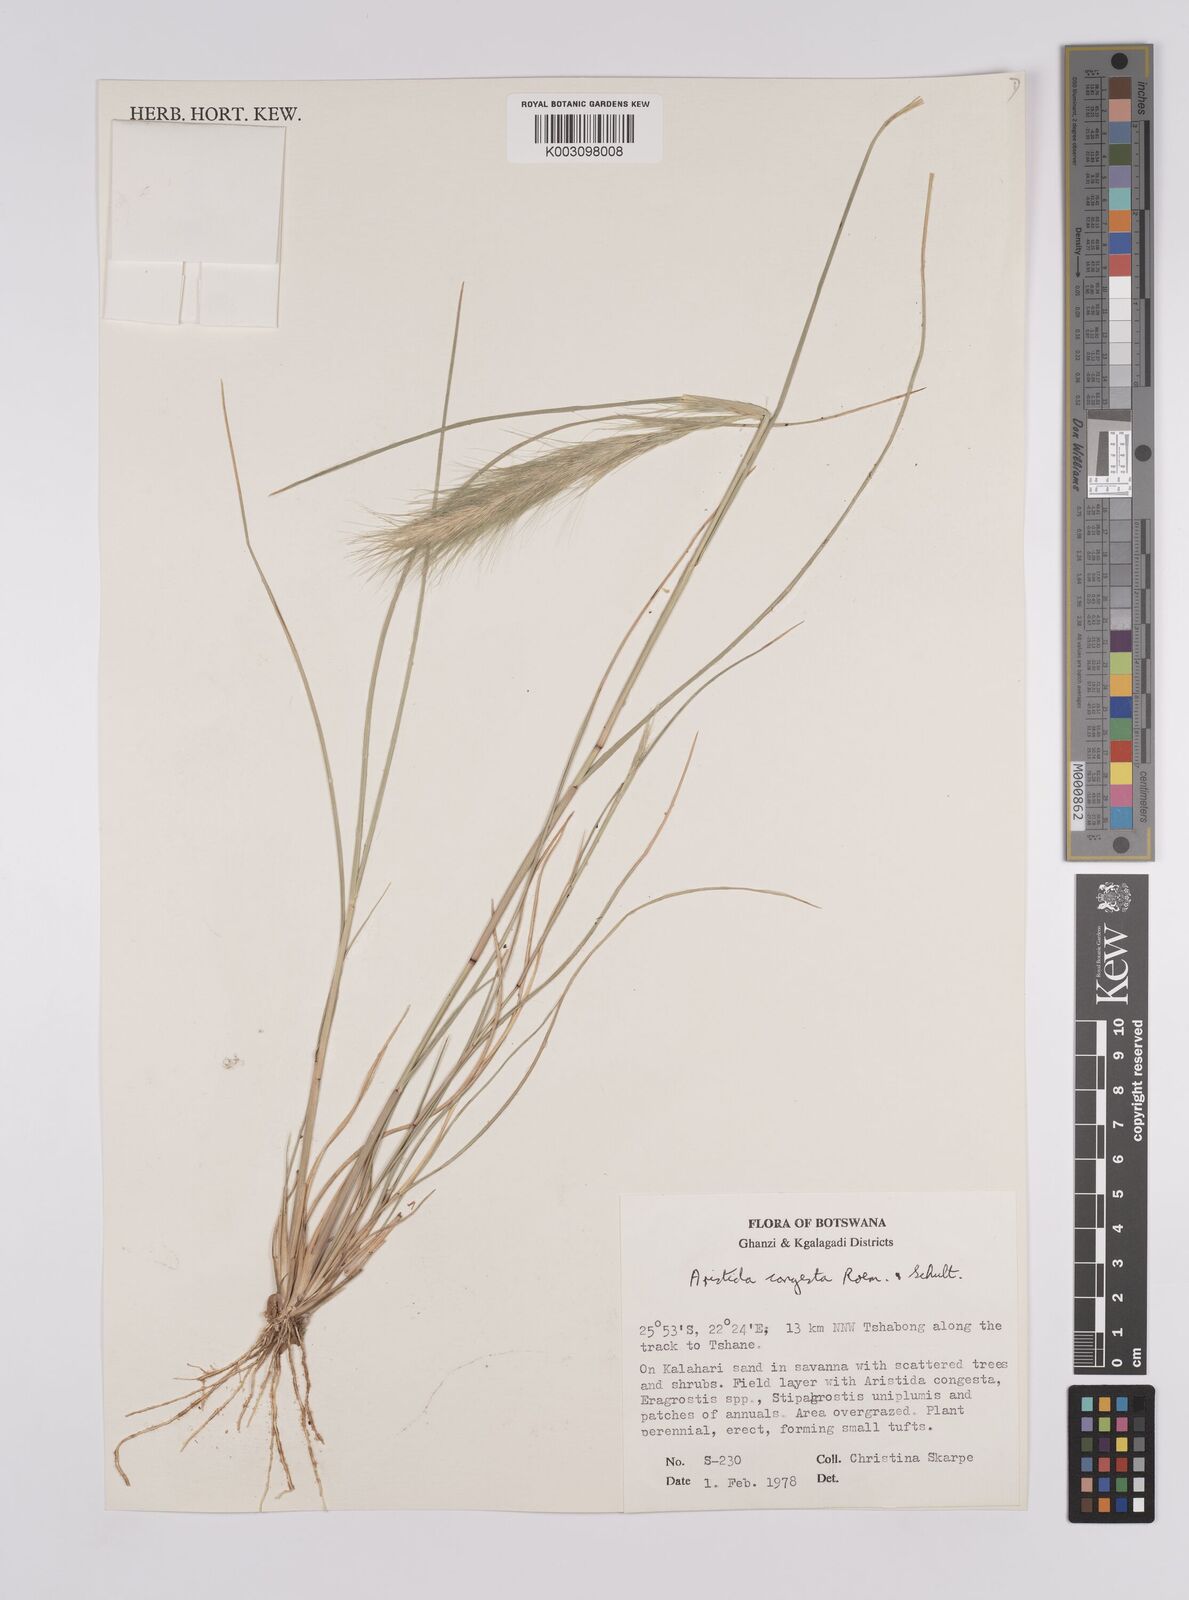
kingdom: Plantae
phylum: Tracheophyta
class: Liliopsida
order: Poales
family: Poaceae
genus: Aristida
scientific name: Aristida congesta
